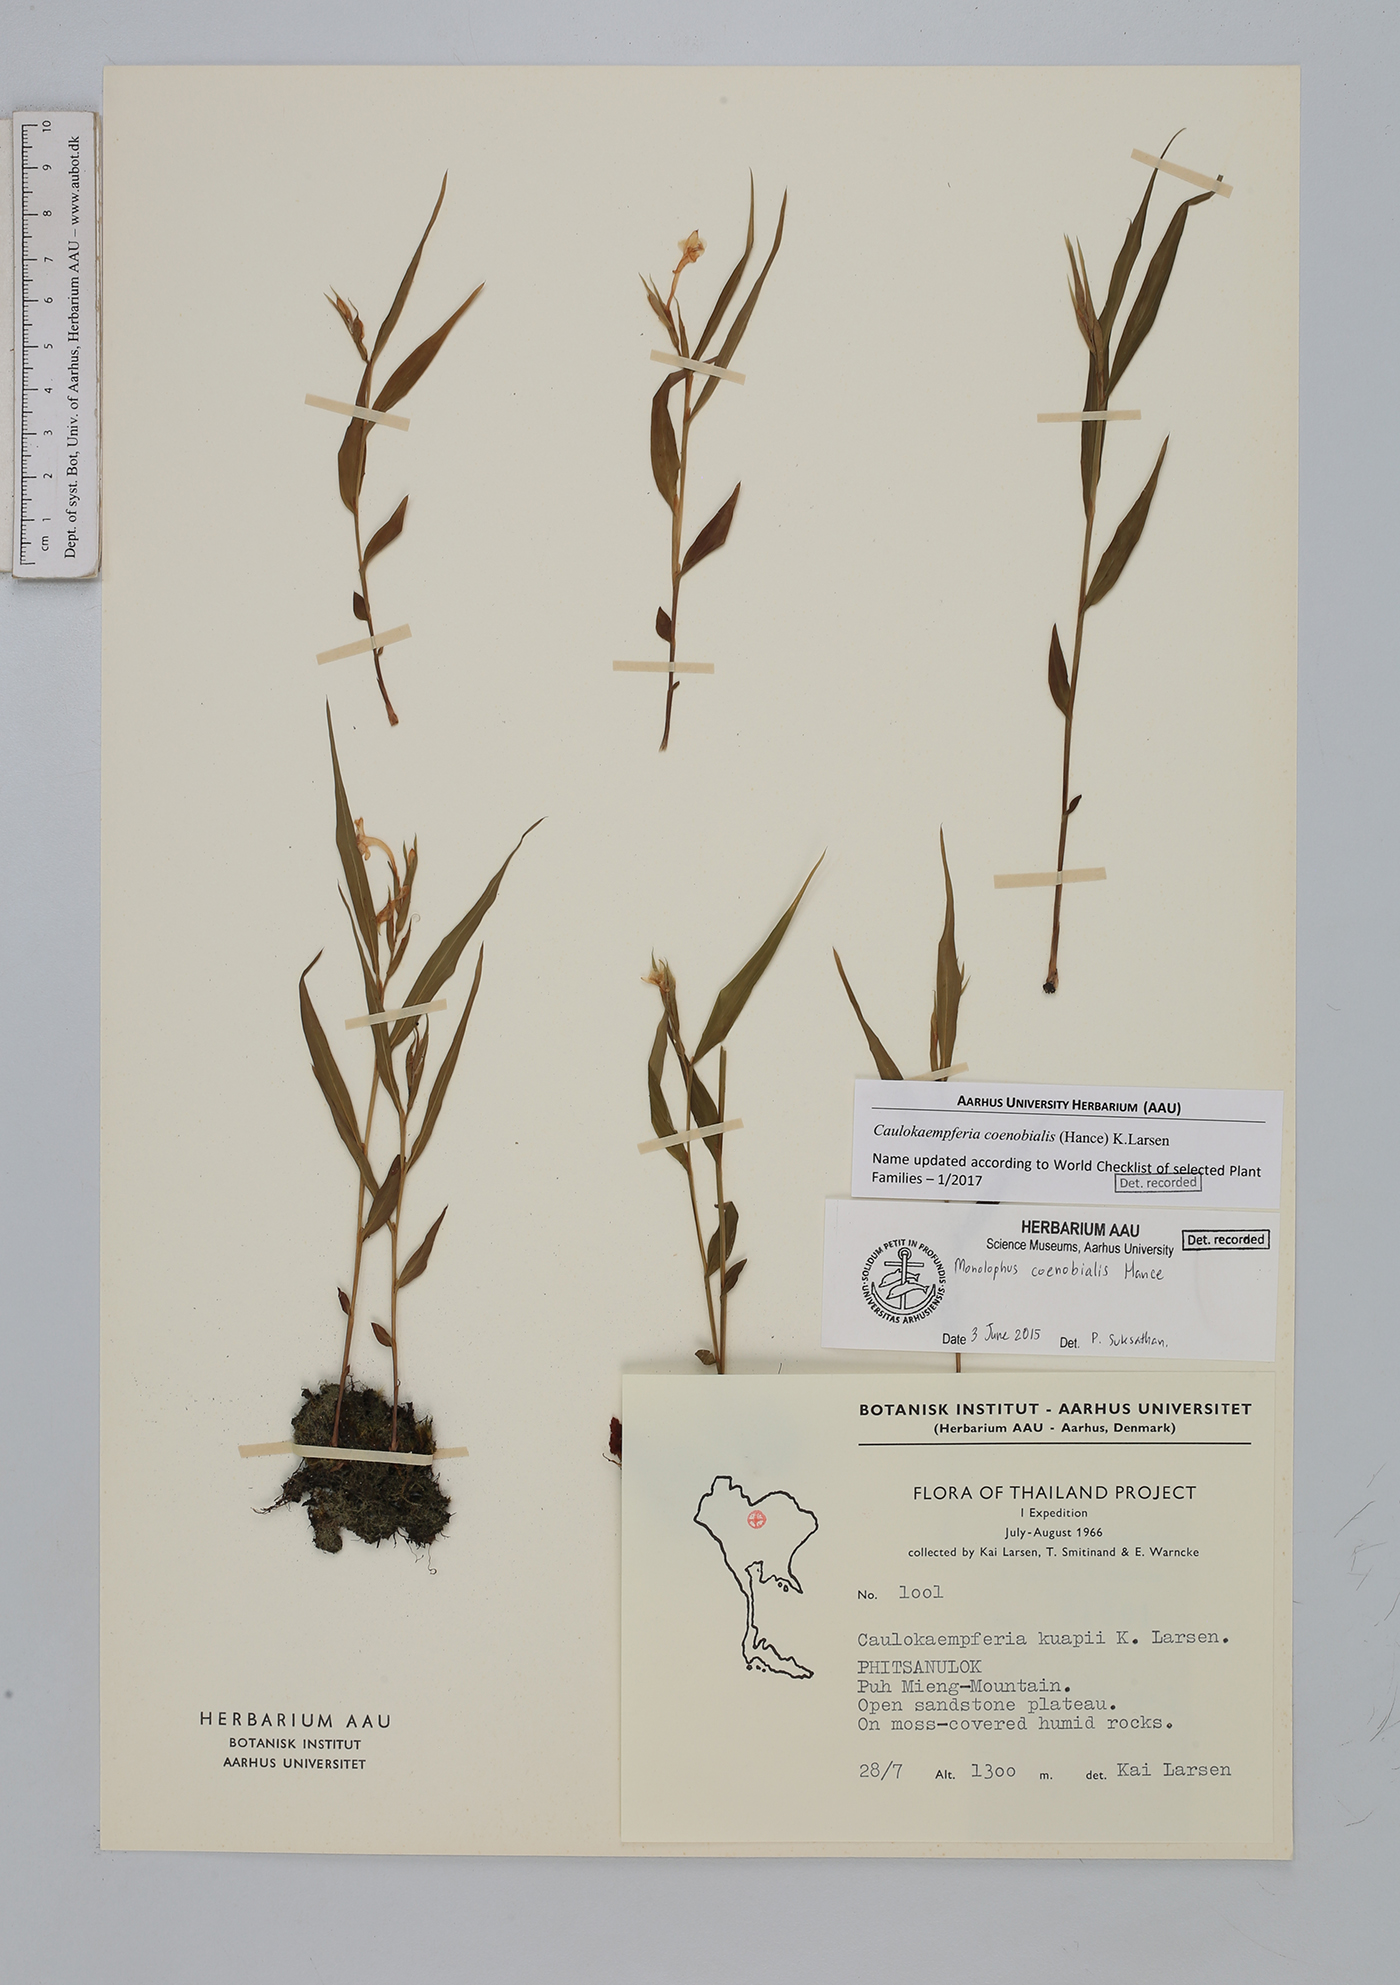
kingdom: Plantae
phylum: Tracheophyta
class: Liliopsida
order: Zingiberales
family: Zingiberaceae
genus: Caulokaempferia
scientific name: Caulokaempferia coenobialis
